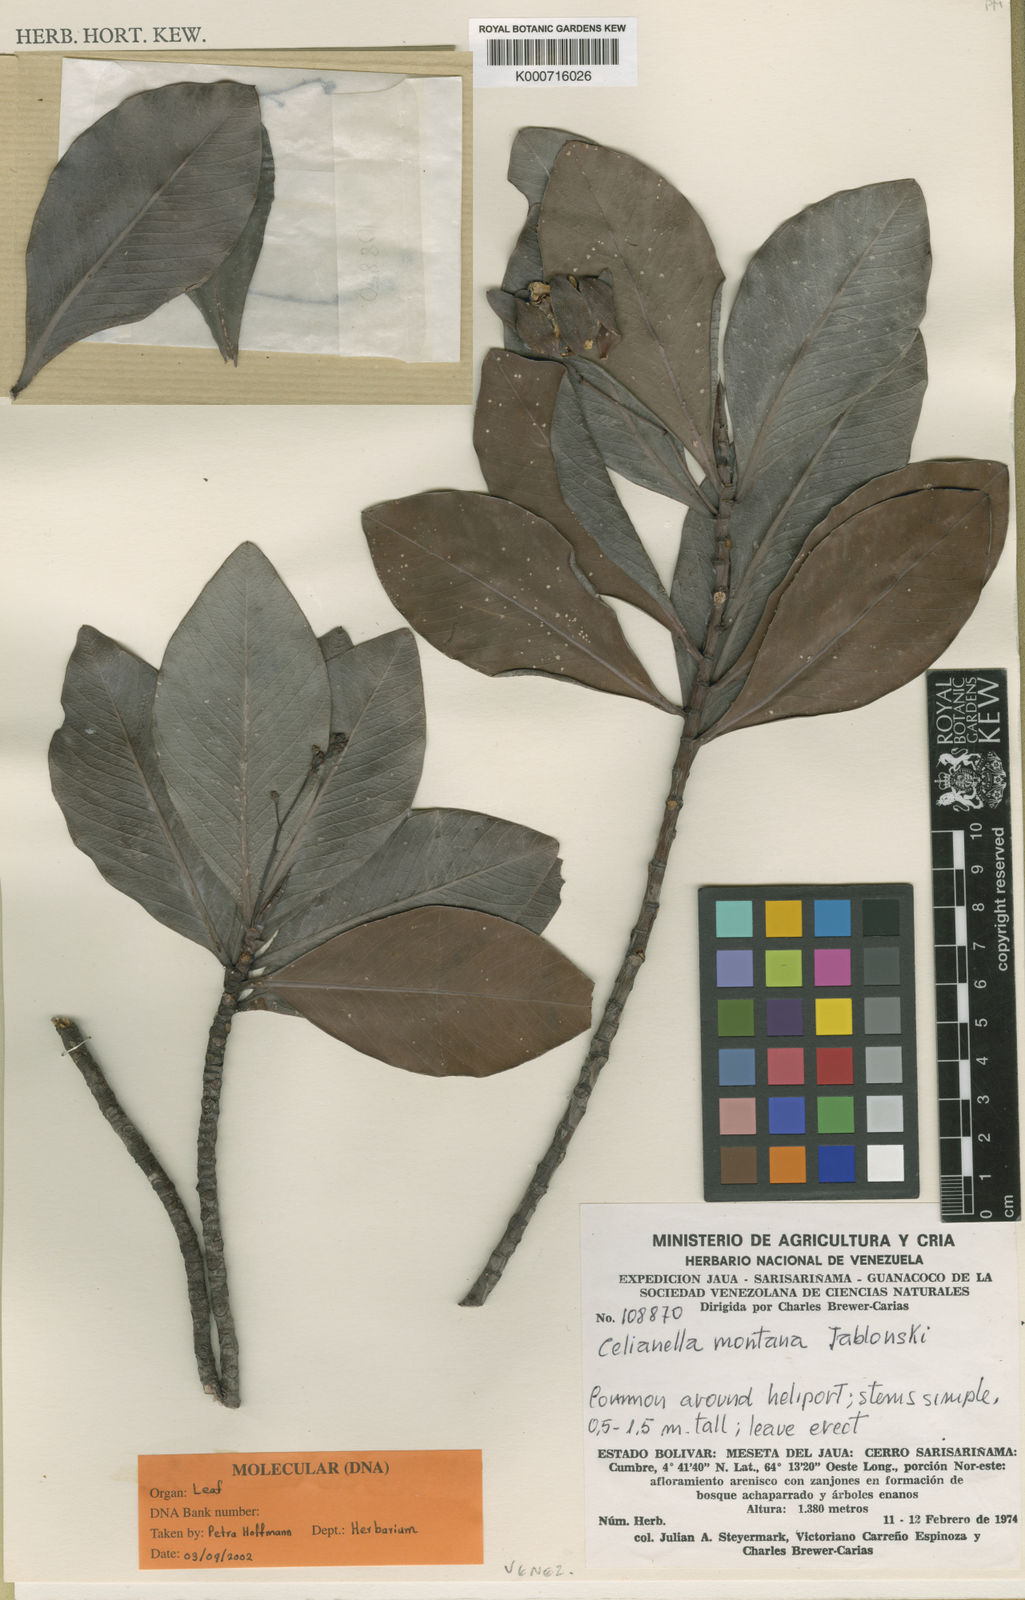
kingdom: Plantae
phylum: Tracheophyta
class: Magnoliopsida
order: Malpighiales
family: Phyllanthaceae
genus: Celianella
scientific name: Celianella montana
